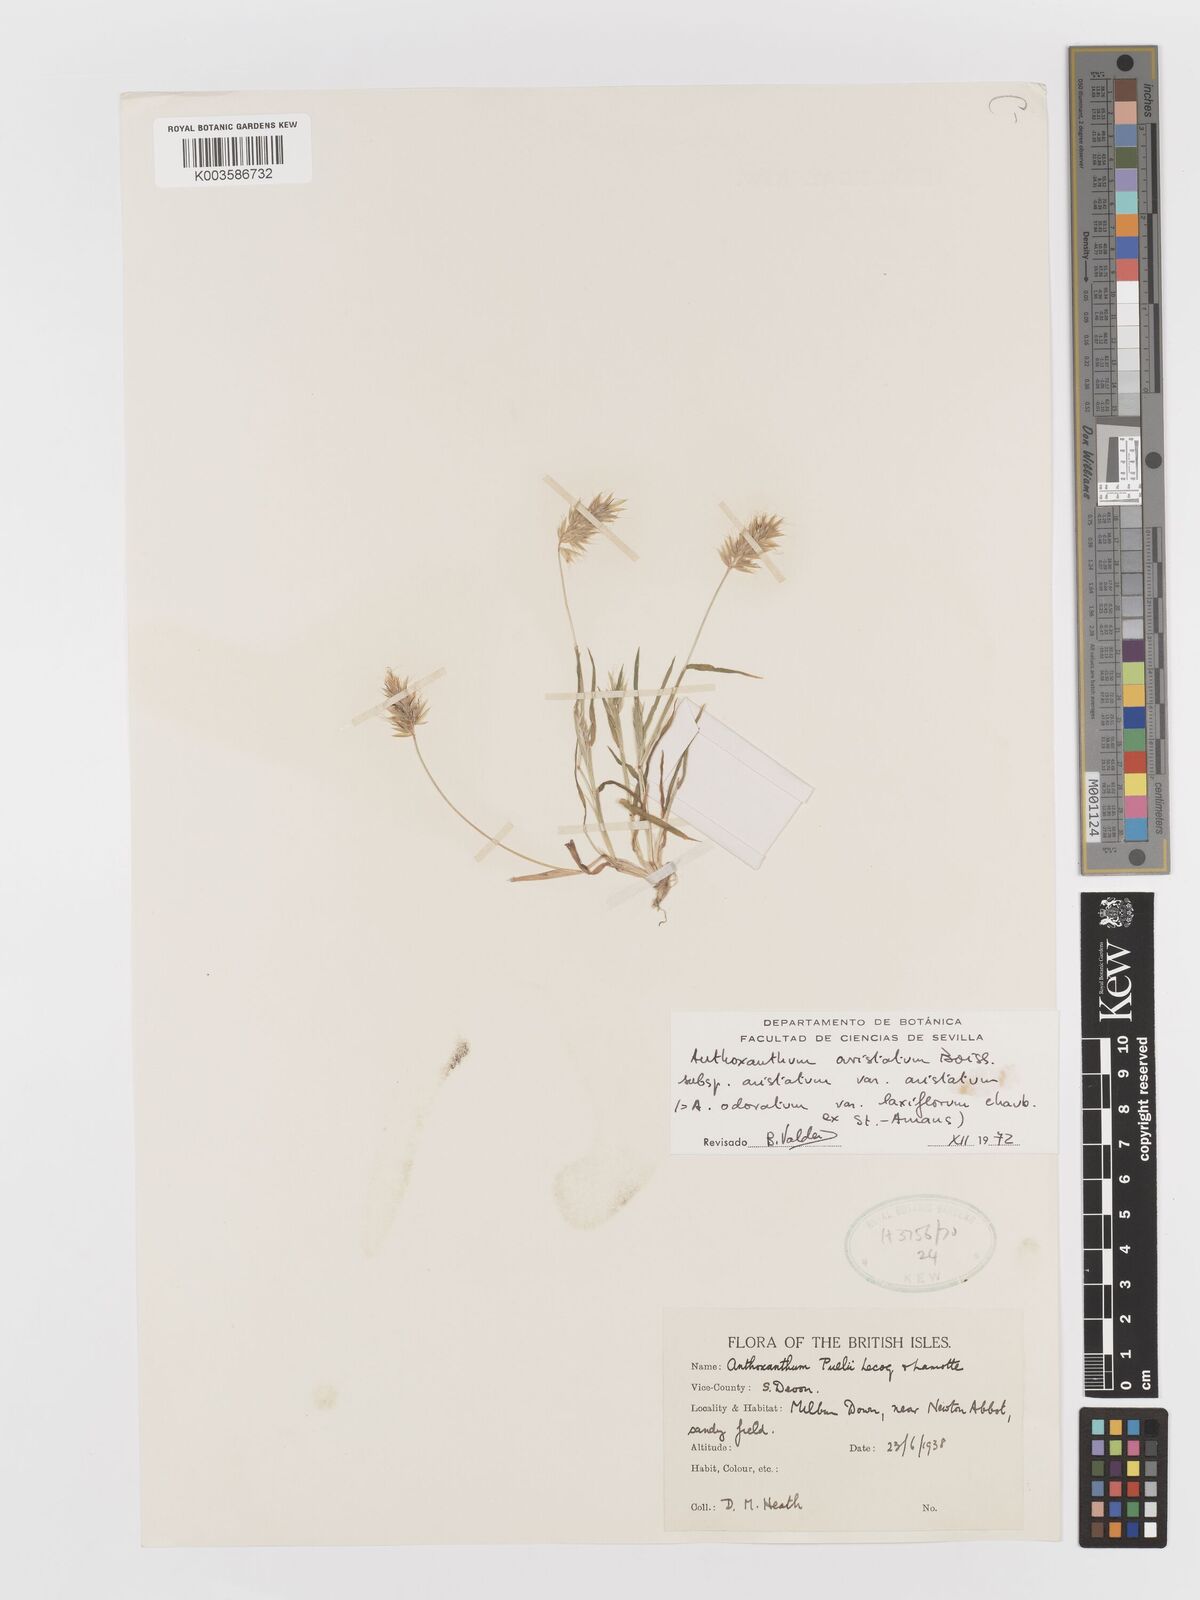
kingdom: Plantae
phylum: Tracheophyta
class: Liliopsida
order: Poales
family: Poaceae
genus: Anthoxanthum
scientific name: Anthoxanthum aristatum
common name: Annual vernal-grass
